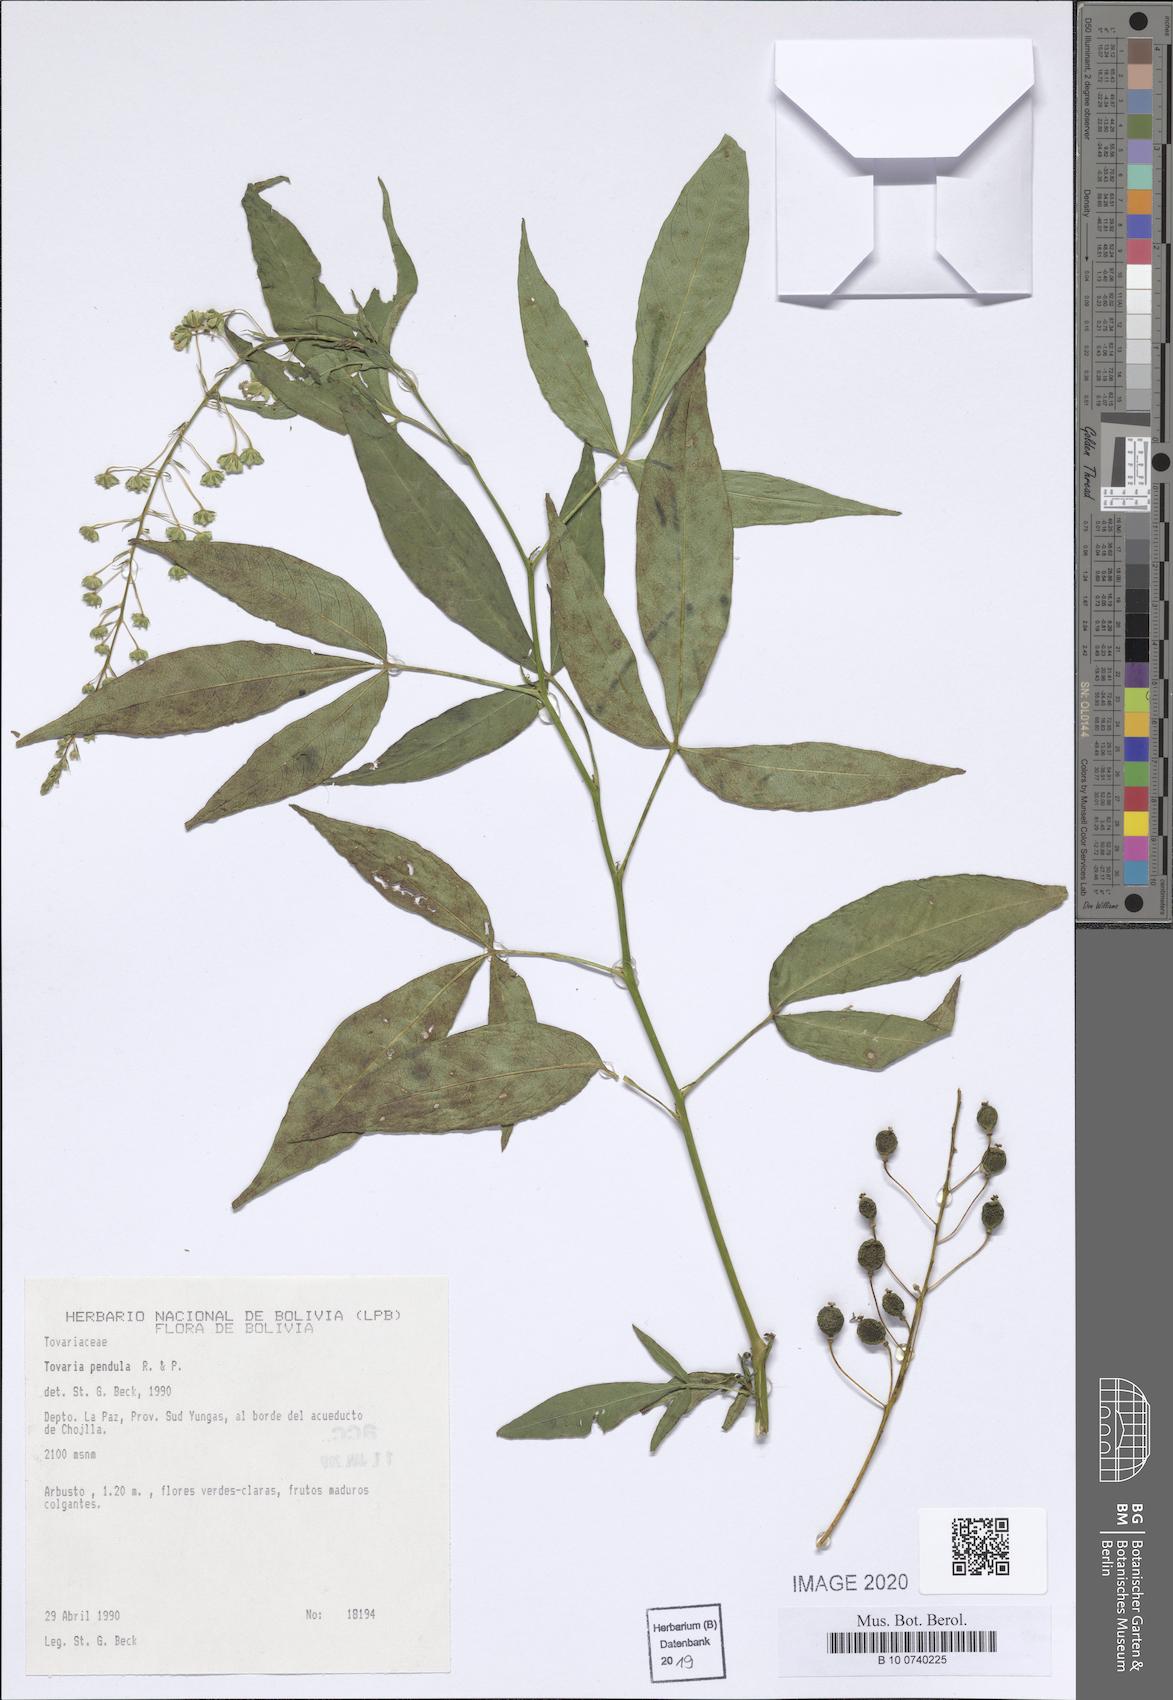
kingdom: Plantae
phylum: Tracheophyta
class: Magnoliopsida
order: Brassicales
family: Tovariaceae
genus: Tovaria
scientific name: Tovaria pendula
